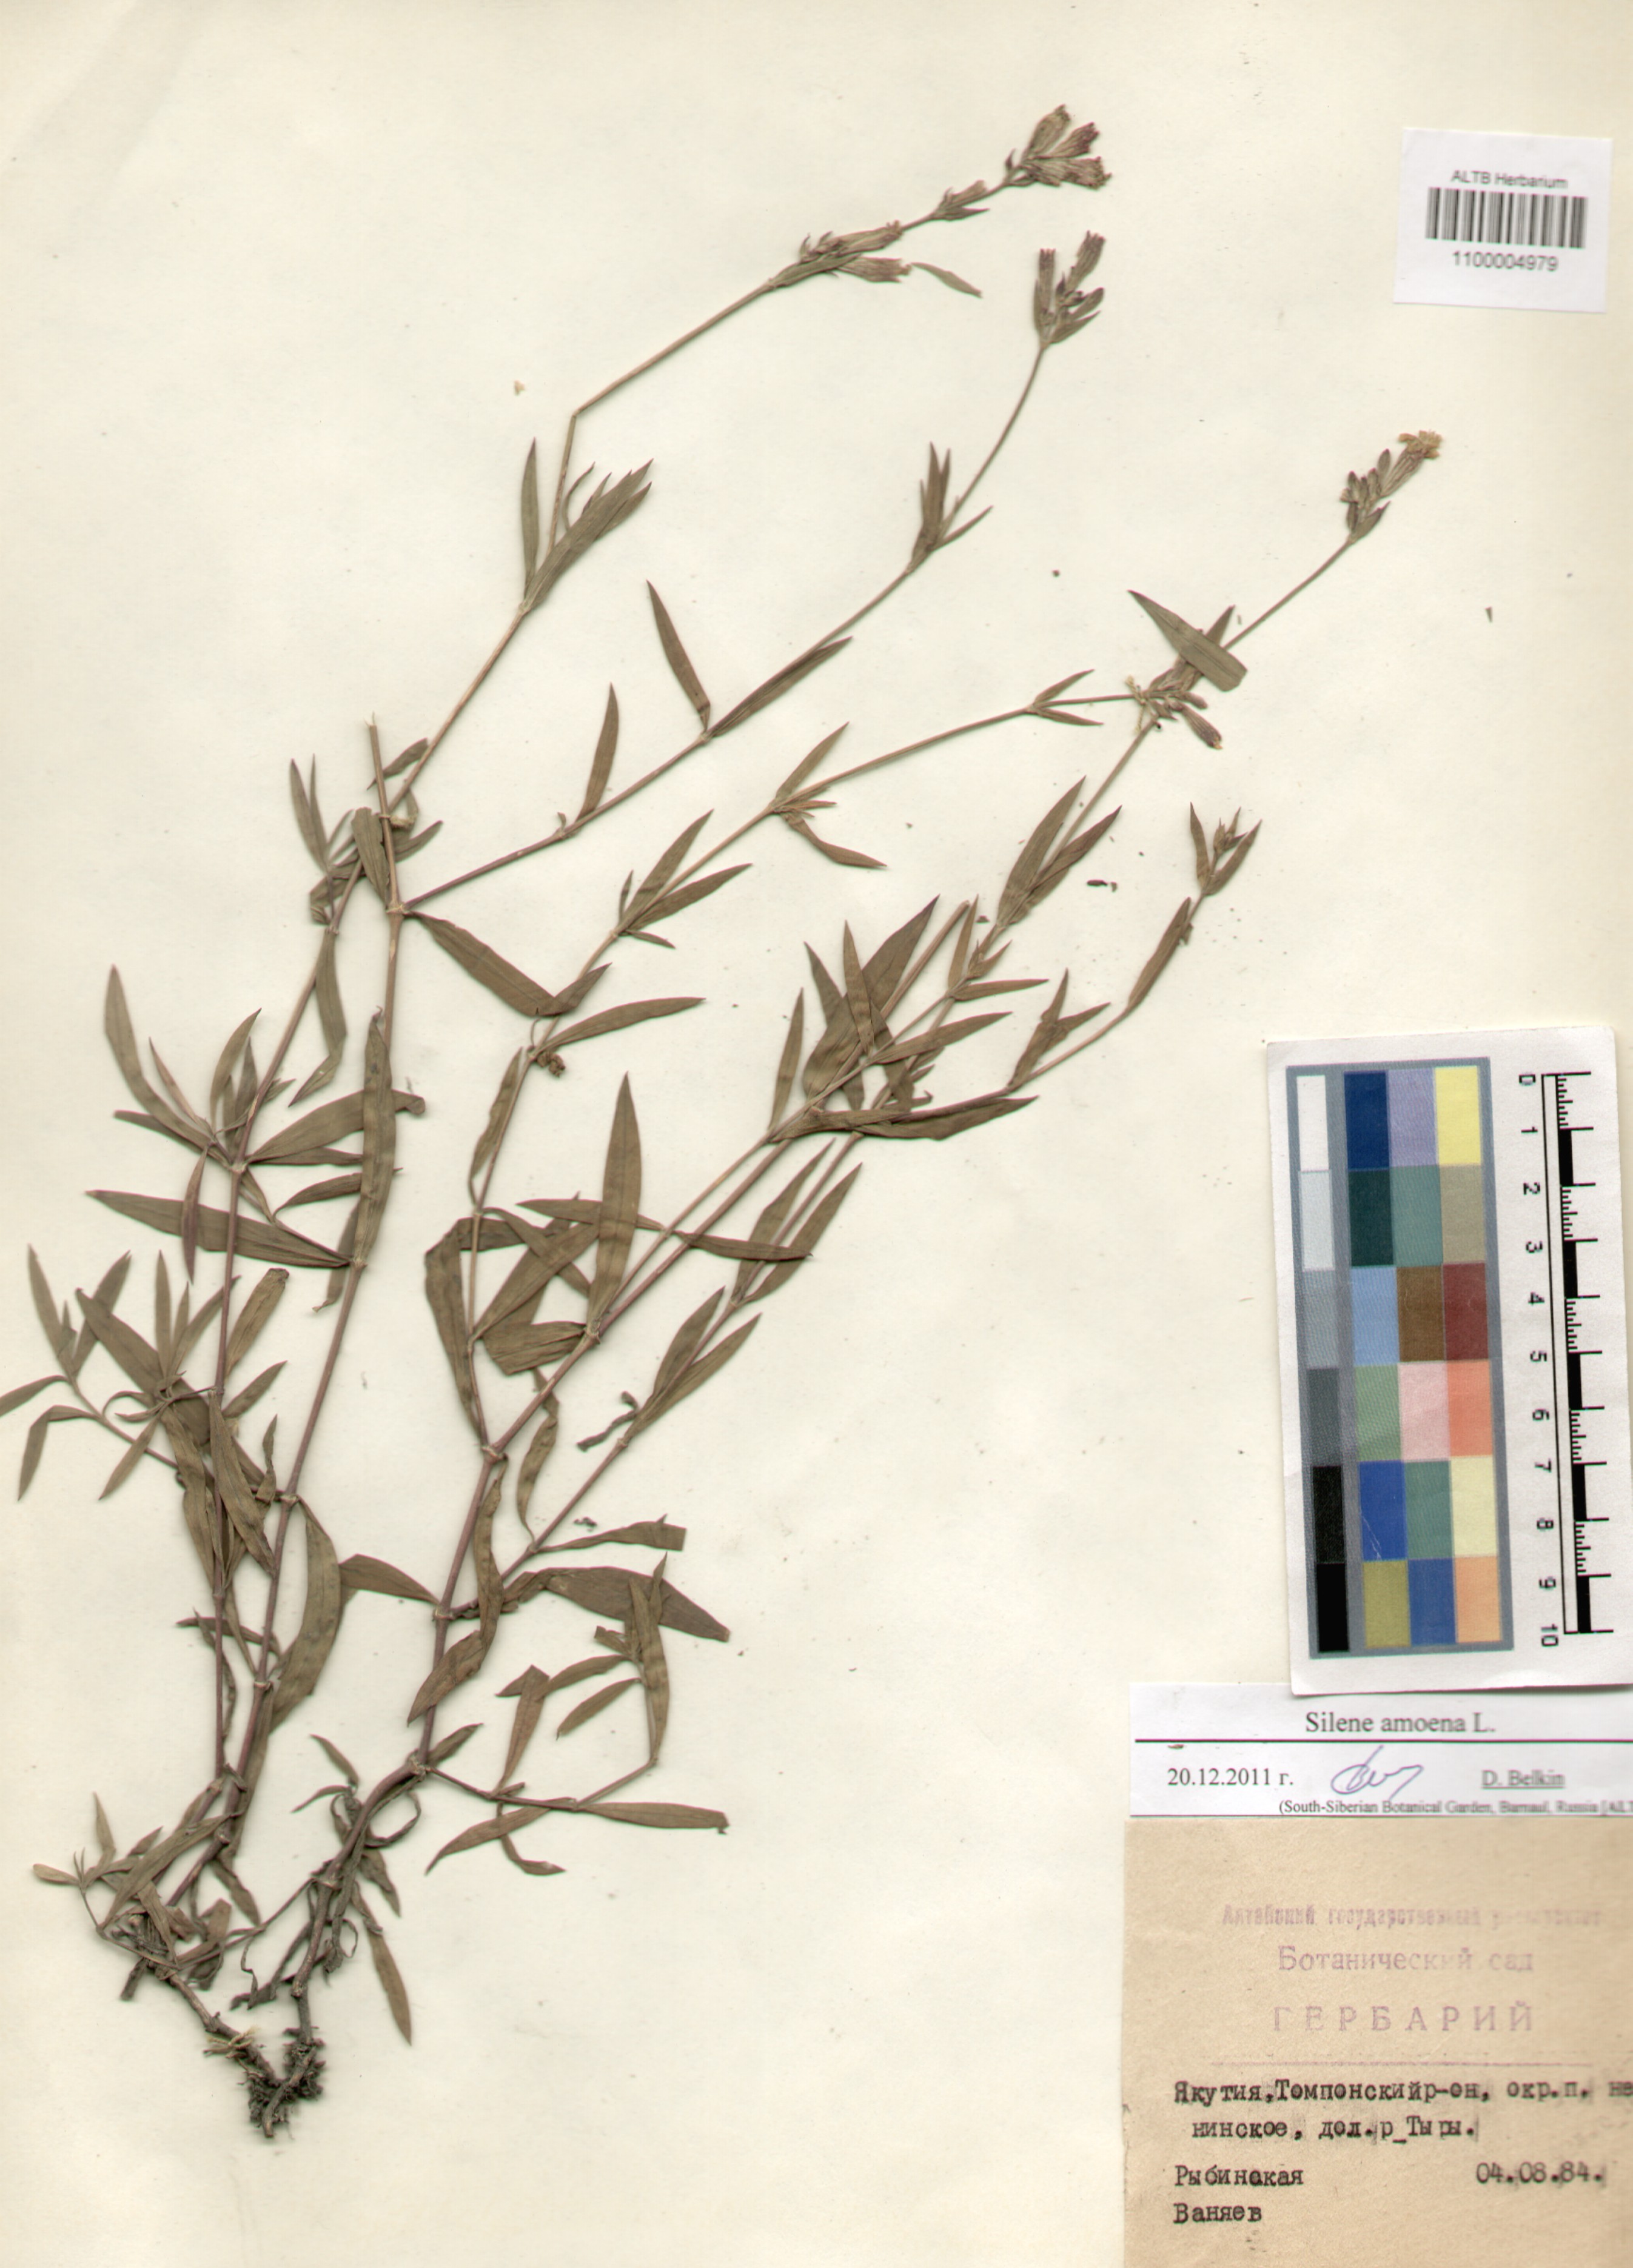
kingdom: Plantae
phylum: Tracheophyta
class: Magnoliopsida
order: Caryophyllales
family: Caryophyllaceae
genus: Silene
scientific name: Silene amoena
